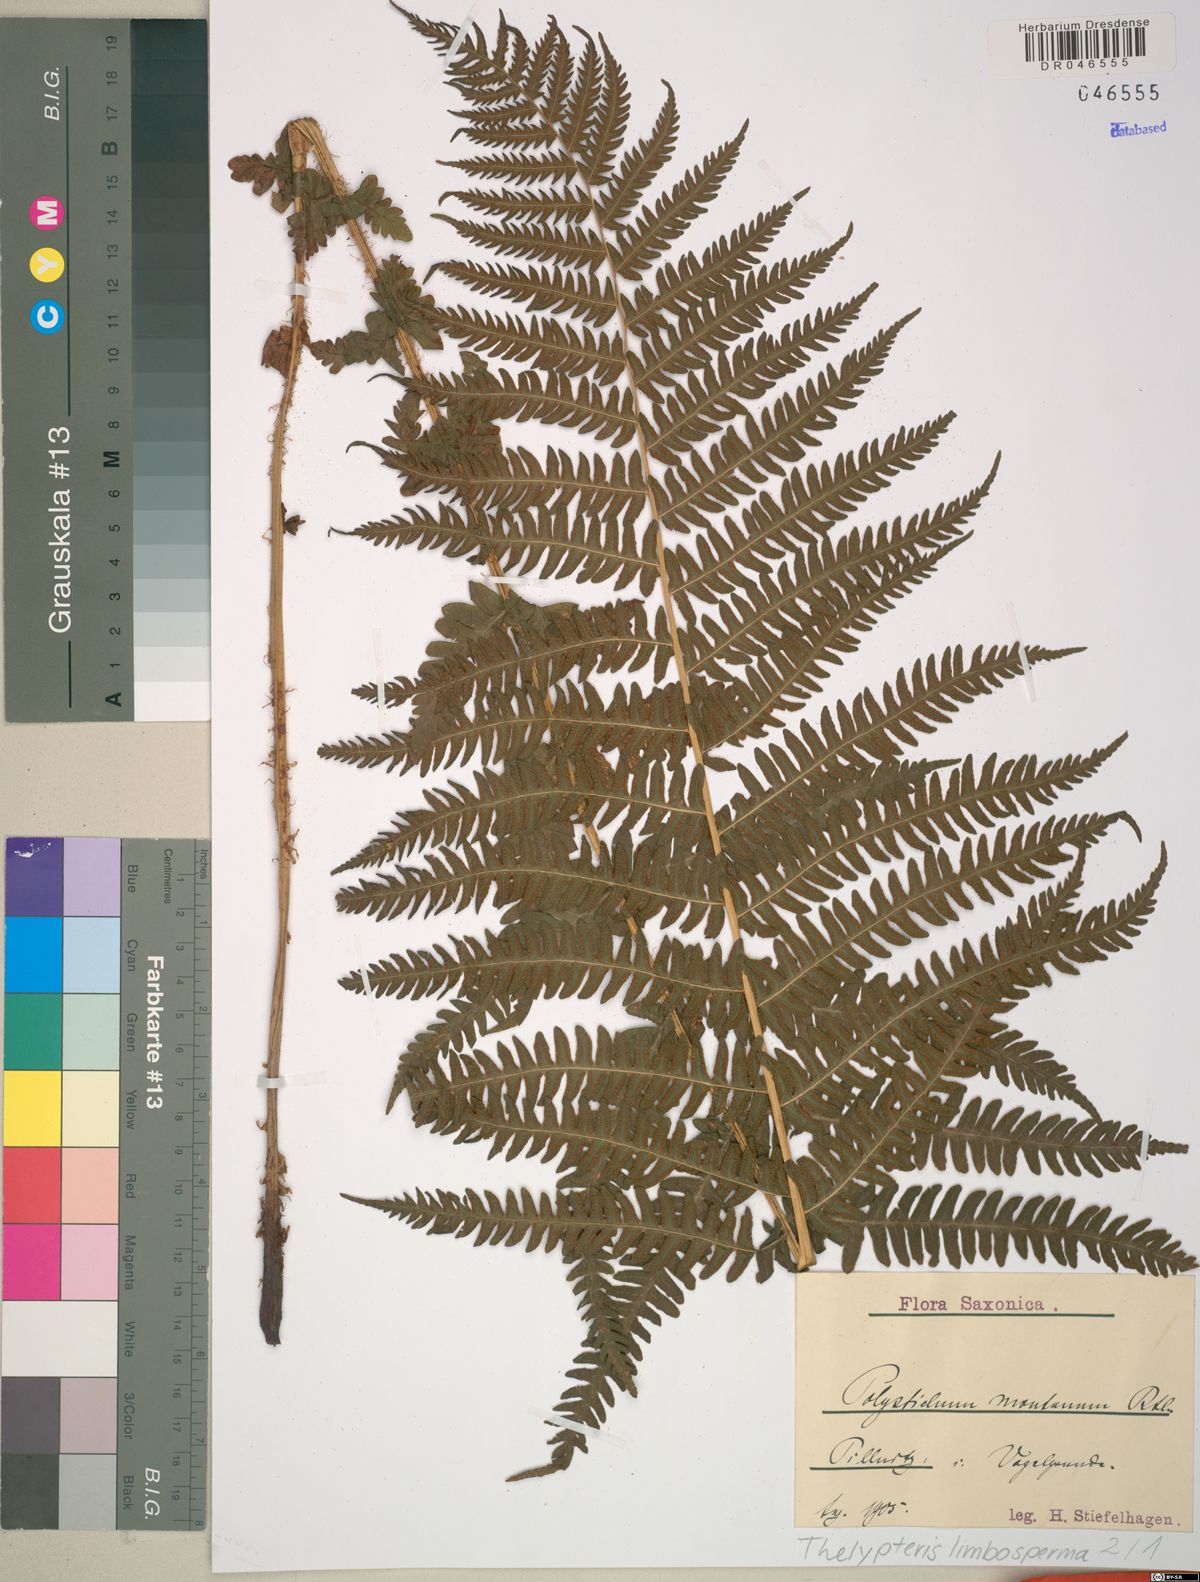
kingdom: Plantae
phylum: Tracheophyta
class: Polypodiopsida
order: Polypodiales
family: Thelypteridaceae
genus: Oreopteris
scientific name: Oreopteris limbosperma
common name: Lemon-scented fern
